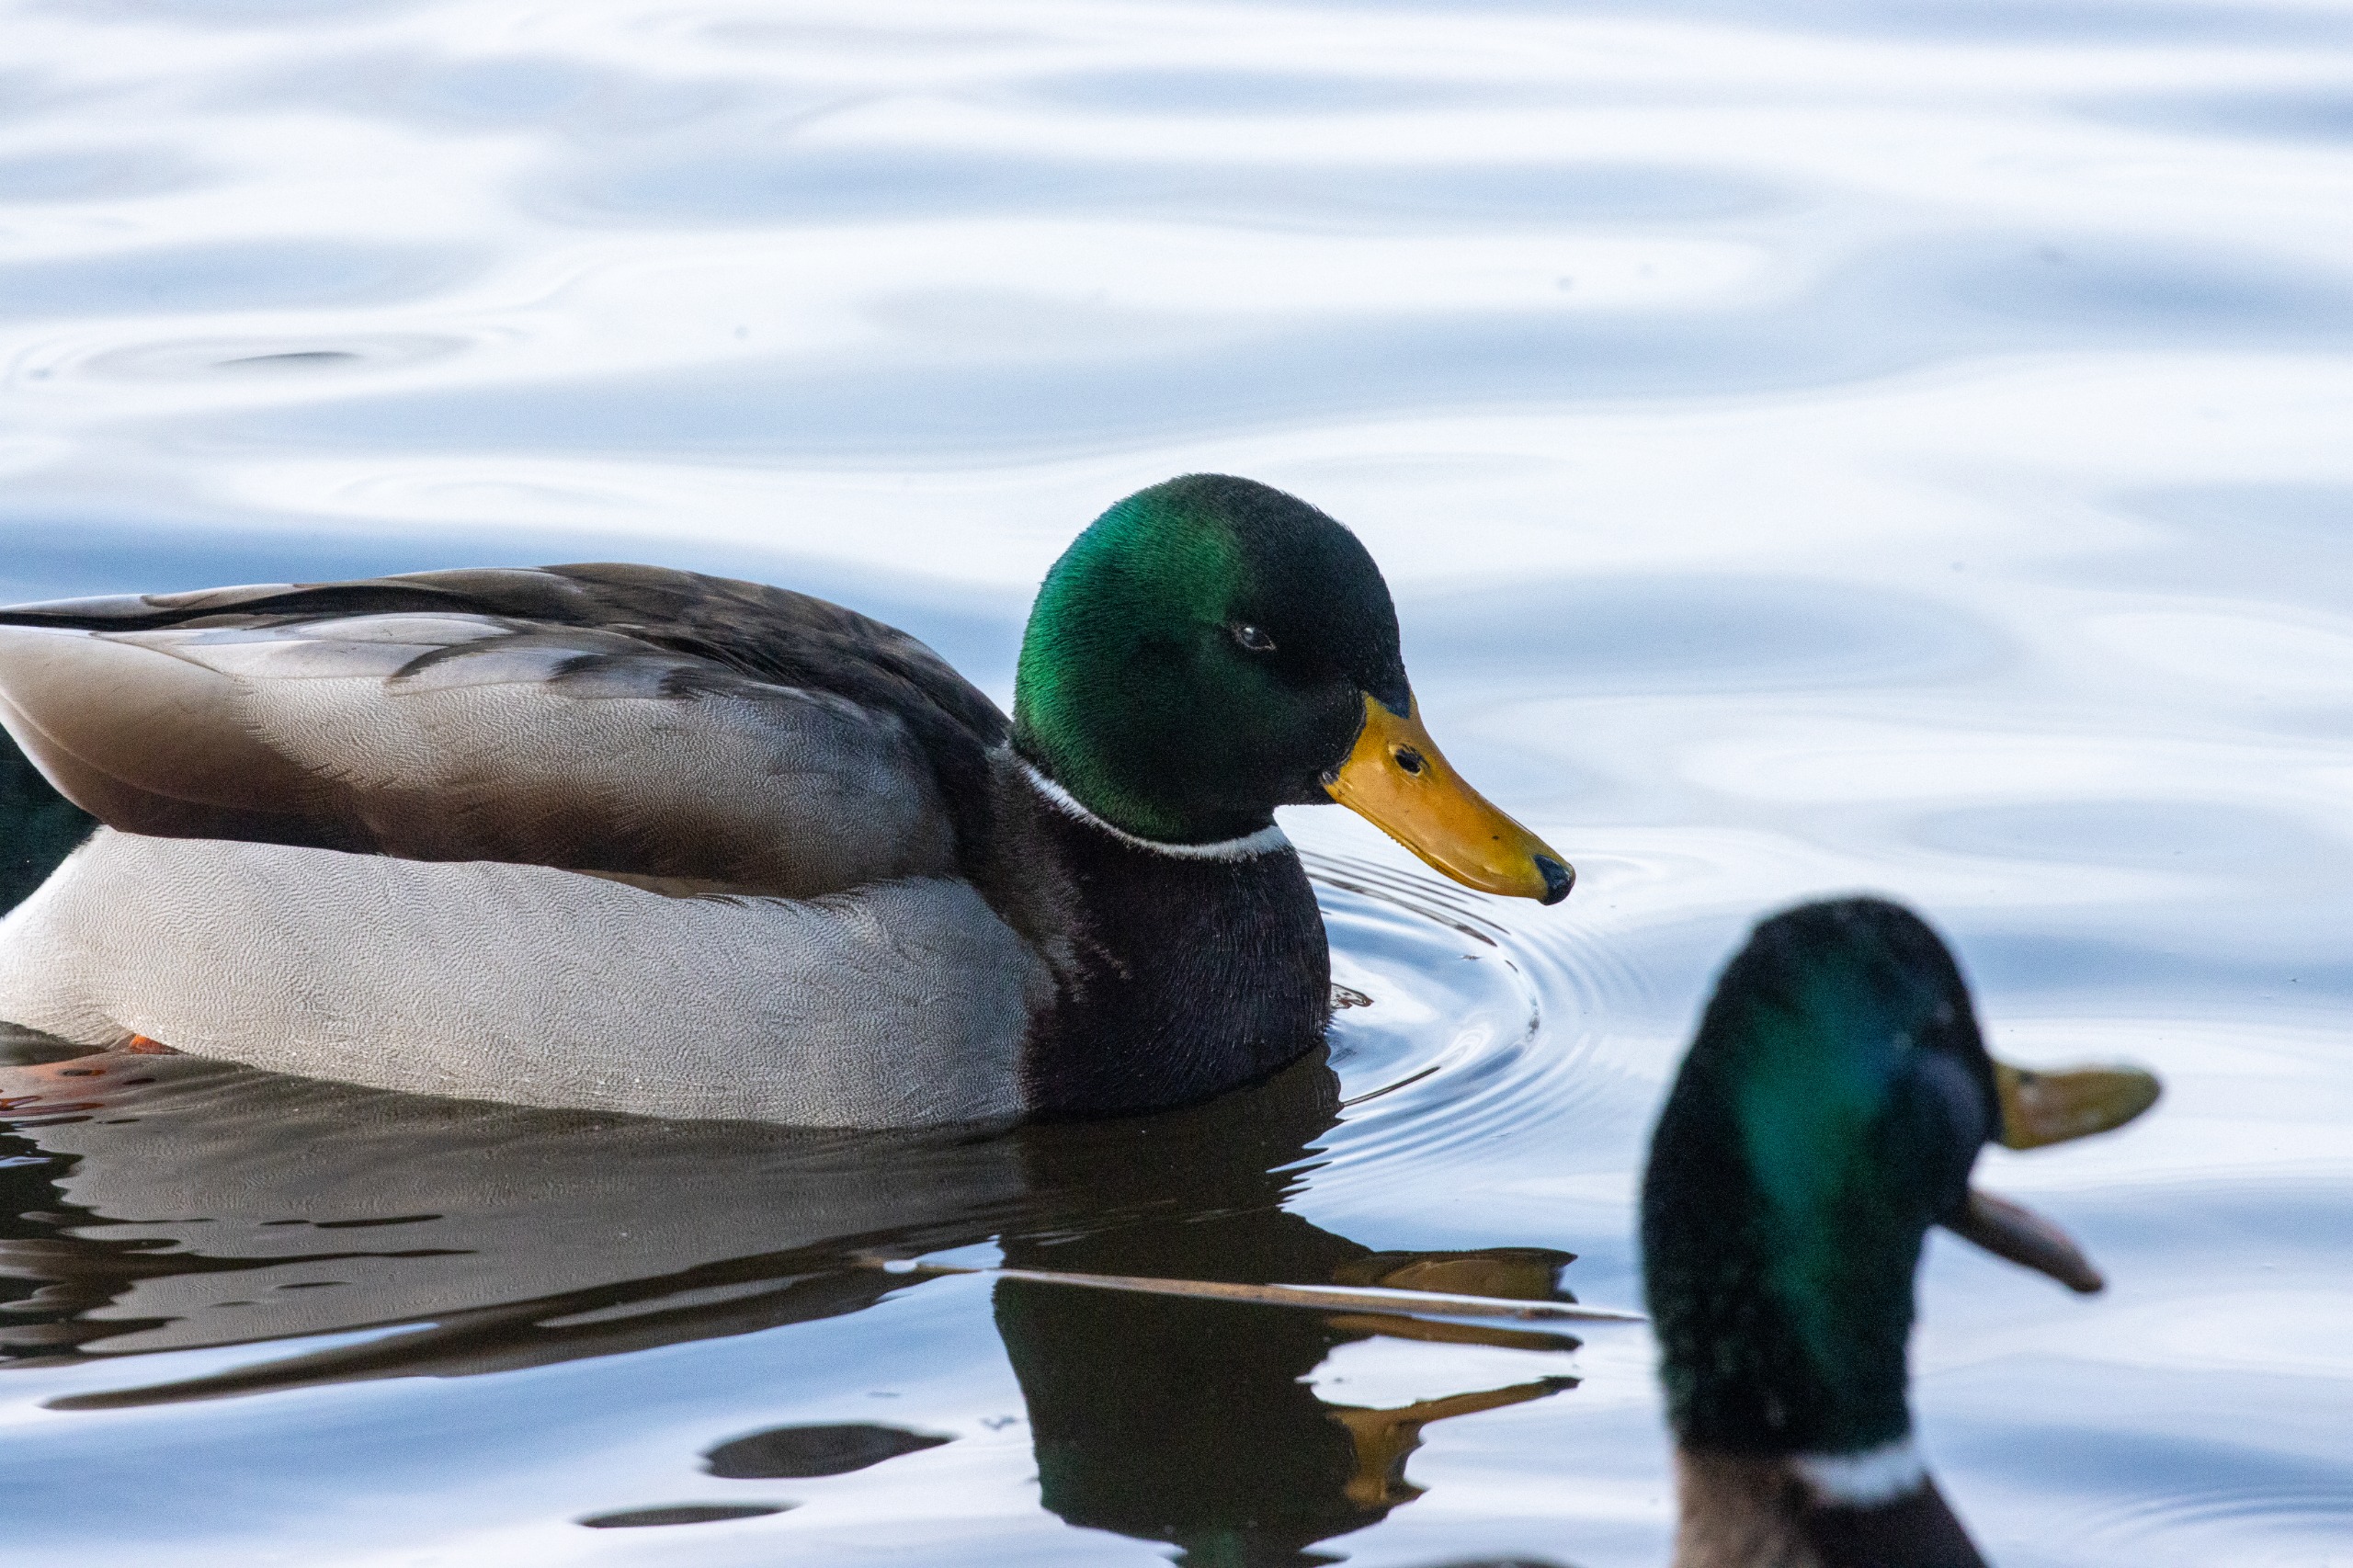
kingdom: Animalia
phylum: Chordata
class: Aves
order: Anseriformes
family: Anatidae
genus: Anas
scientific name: Anas platyrhynchos
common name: Gråand
